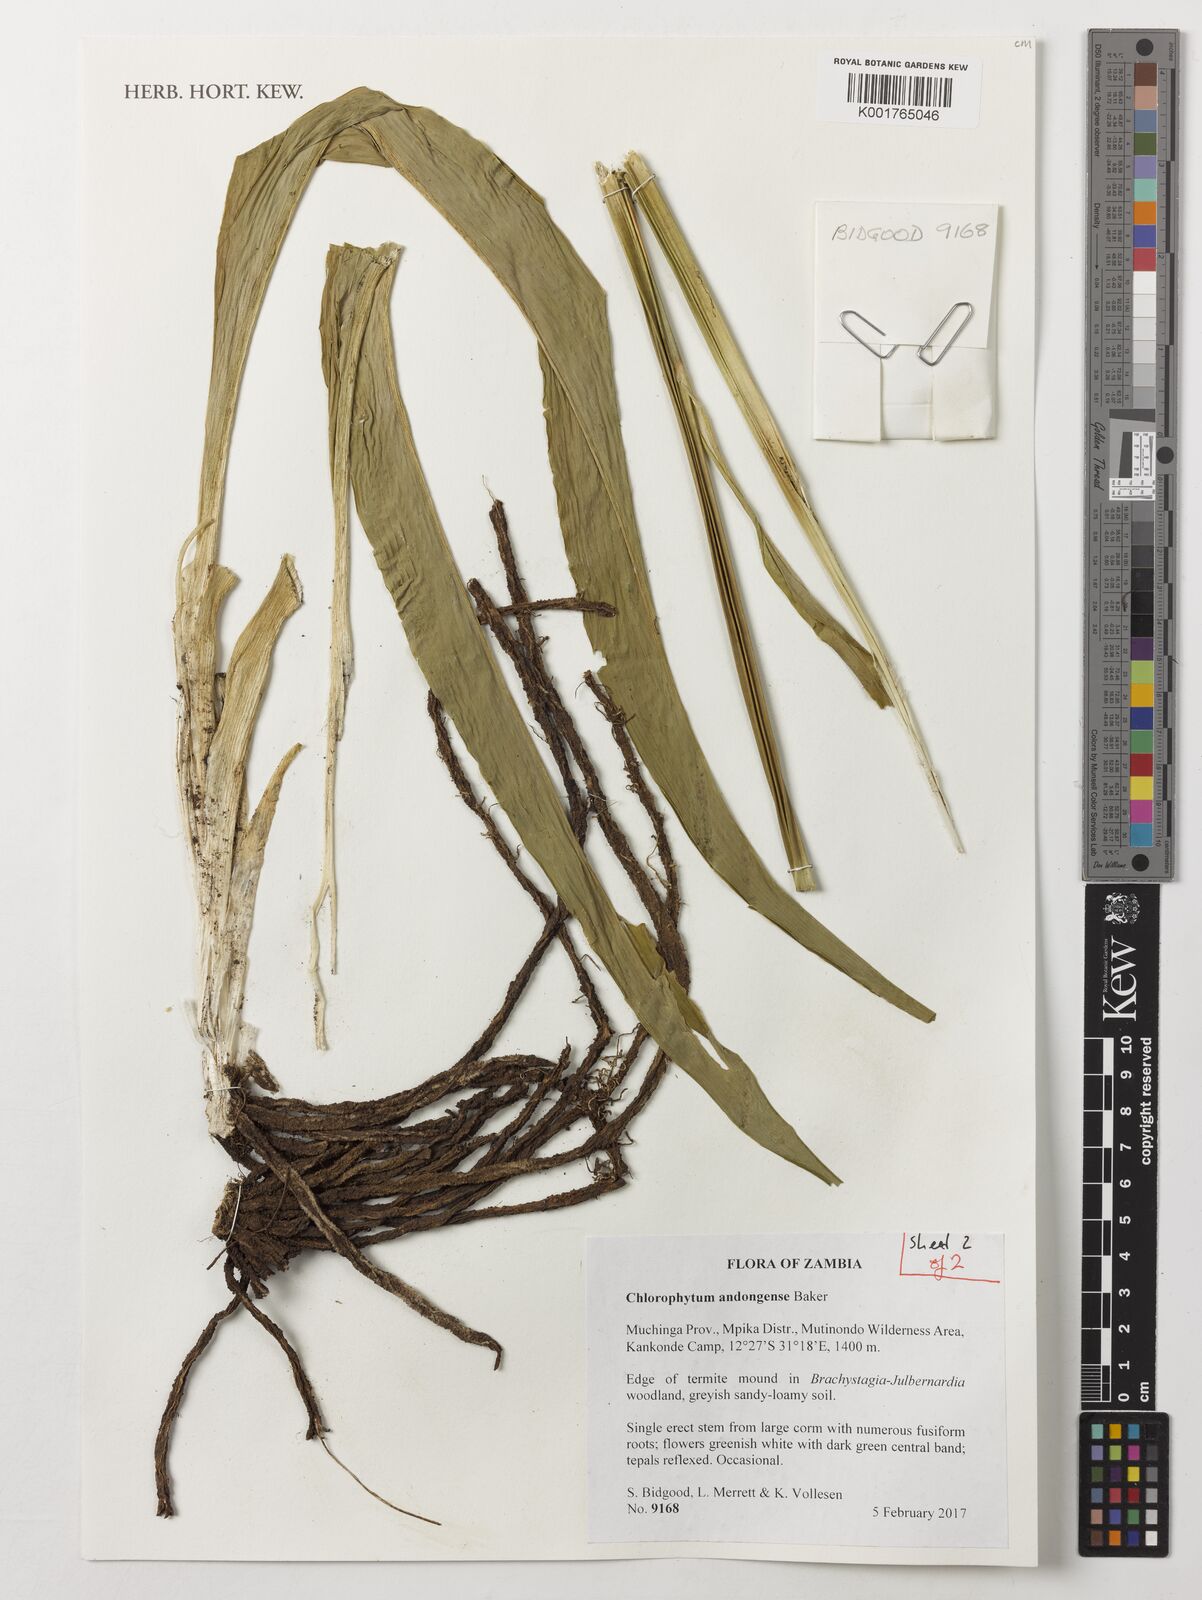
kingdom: Plantae
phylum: Tracheophyta
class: Liliopsida
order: Asparagales
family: Asparagaceae
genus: Chlorophytum
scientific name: Chlorophytum andongense
